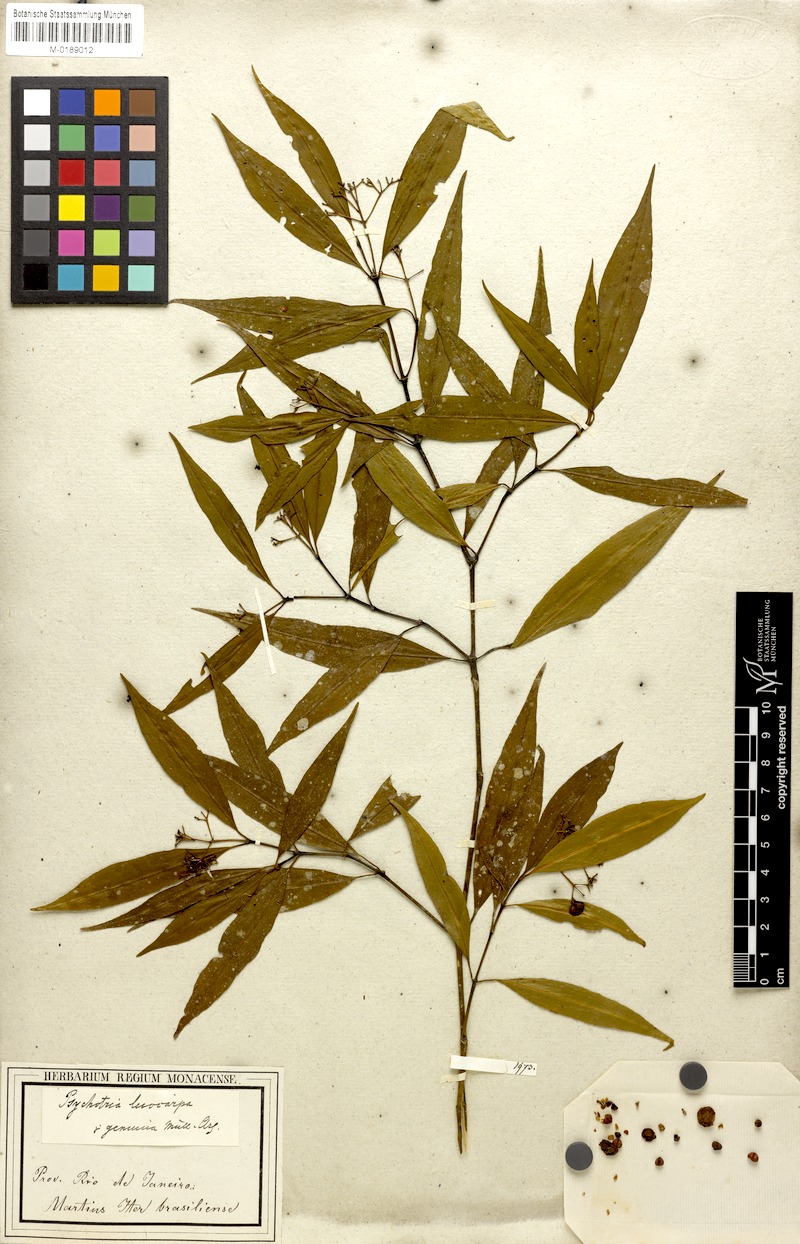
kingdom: Plantae
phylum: Tracheophyta
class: Magnoliopsida
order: Gentianales
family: Rubiaceae
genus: Psychotria
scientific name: Psychotria leiocarpa
